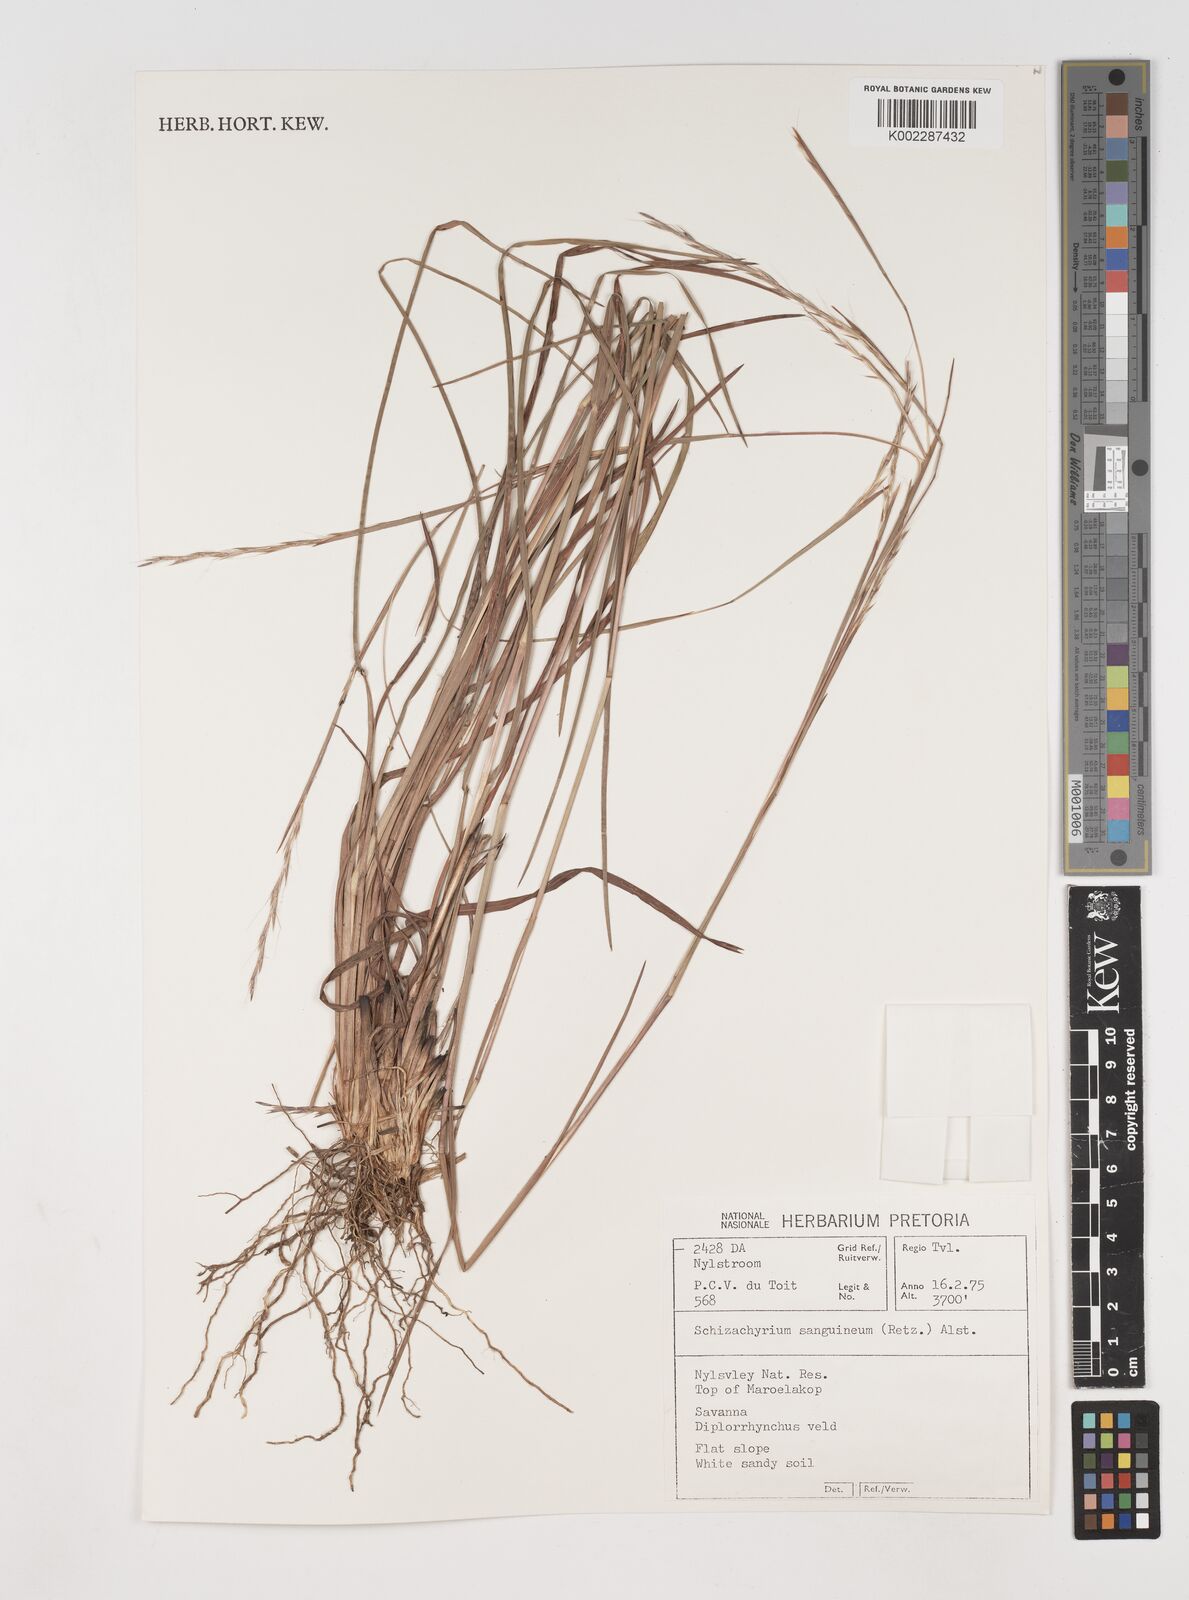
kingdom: Plantae
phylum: Tracheophyta
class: Liliopsida
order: Poales
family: Poaceae
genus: Schizachyrium
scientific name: Schizachyrium sanguineum
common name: Crimson bluestem
